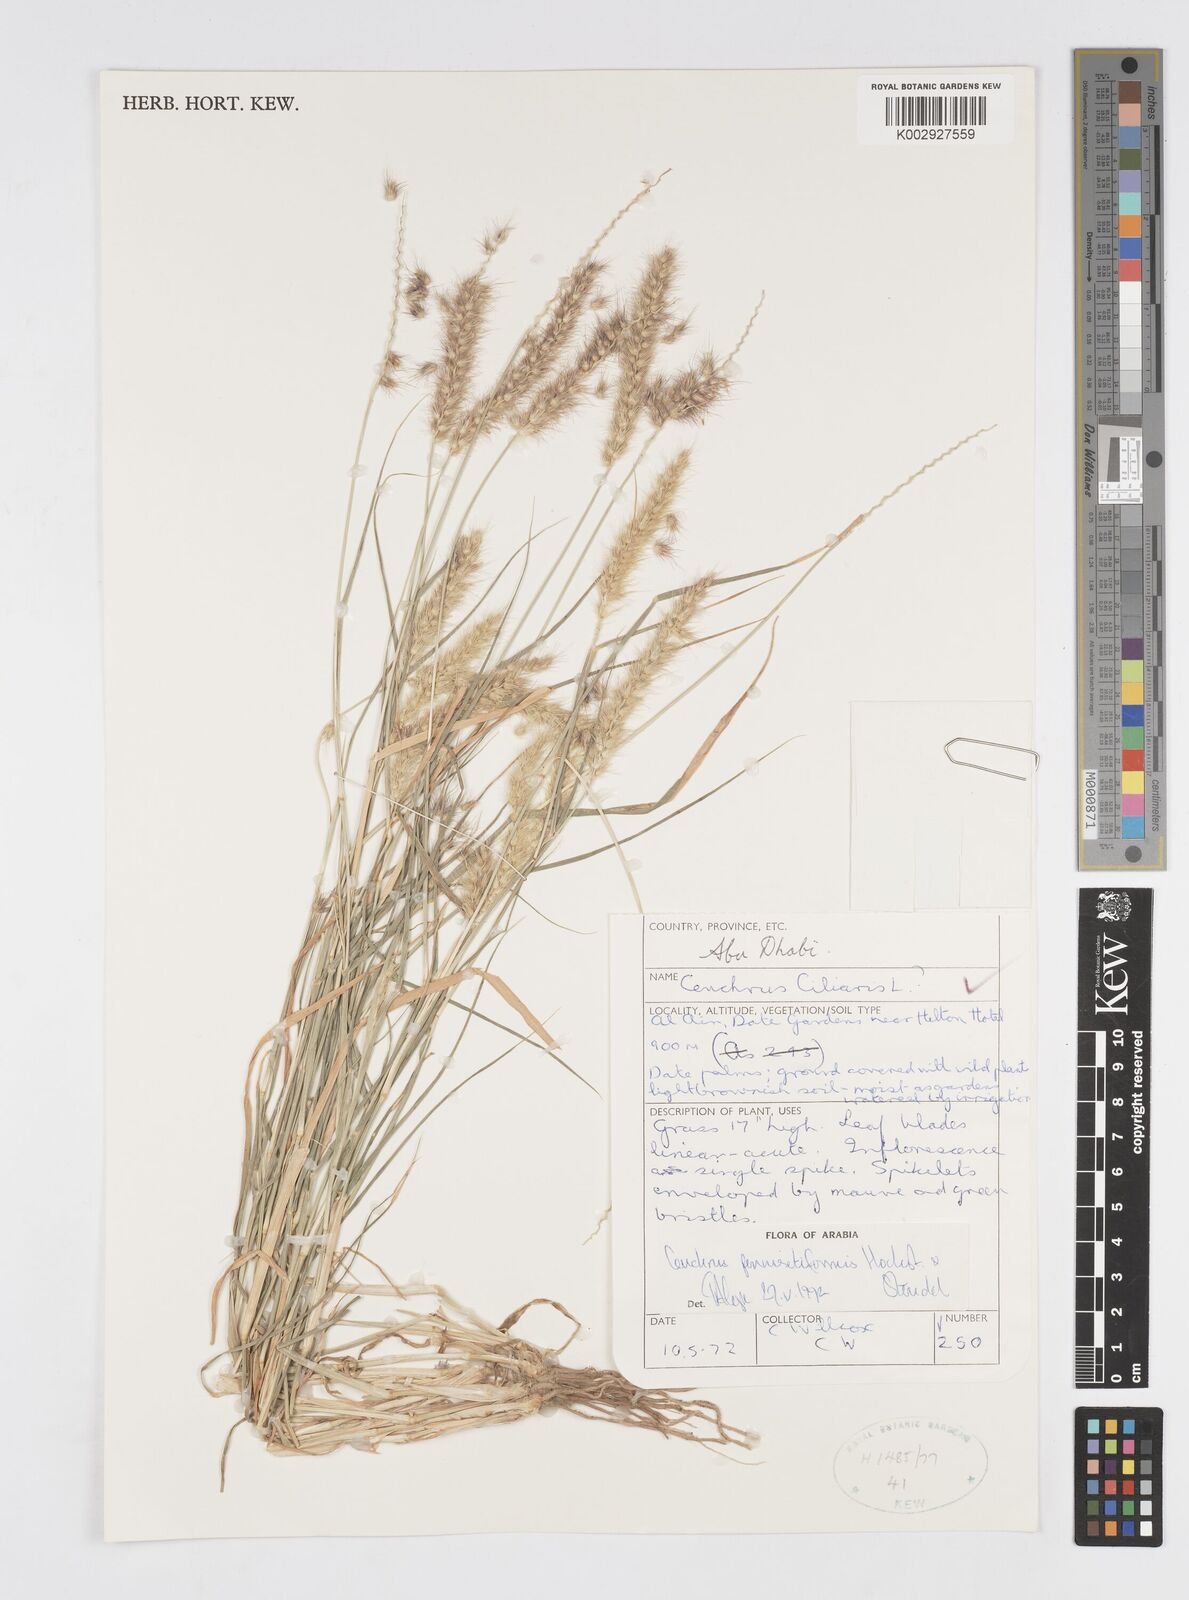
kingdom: Plantae
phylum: Tracheophyta
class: Liliopsida
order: Poales
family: Poaceae
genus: Cenchrus
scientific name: Cenchrus pennisetiformis
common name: Cloncurry
